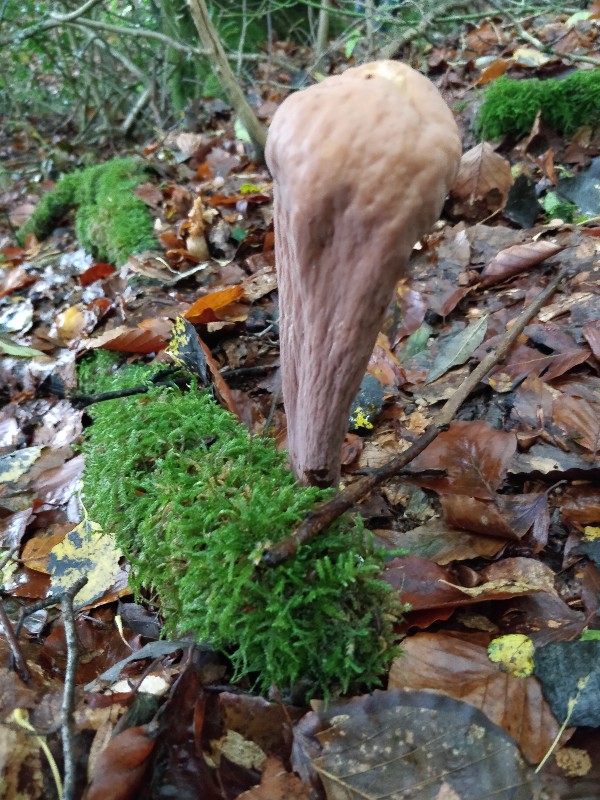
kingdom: Fungi
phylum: Basidiomycota
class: Agaricomycetes
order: Gomphales
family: Clavariadelphaceae
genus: Clavariadelphus
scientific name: Clavariadelphus pistillaris
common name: herkules-kæmpekølle
